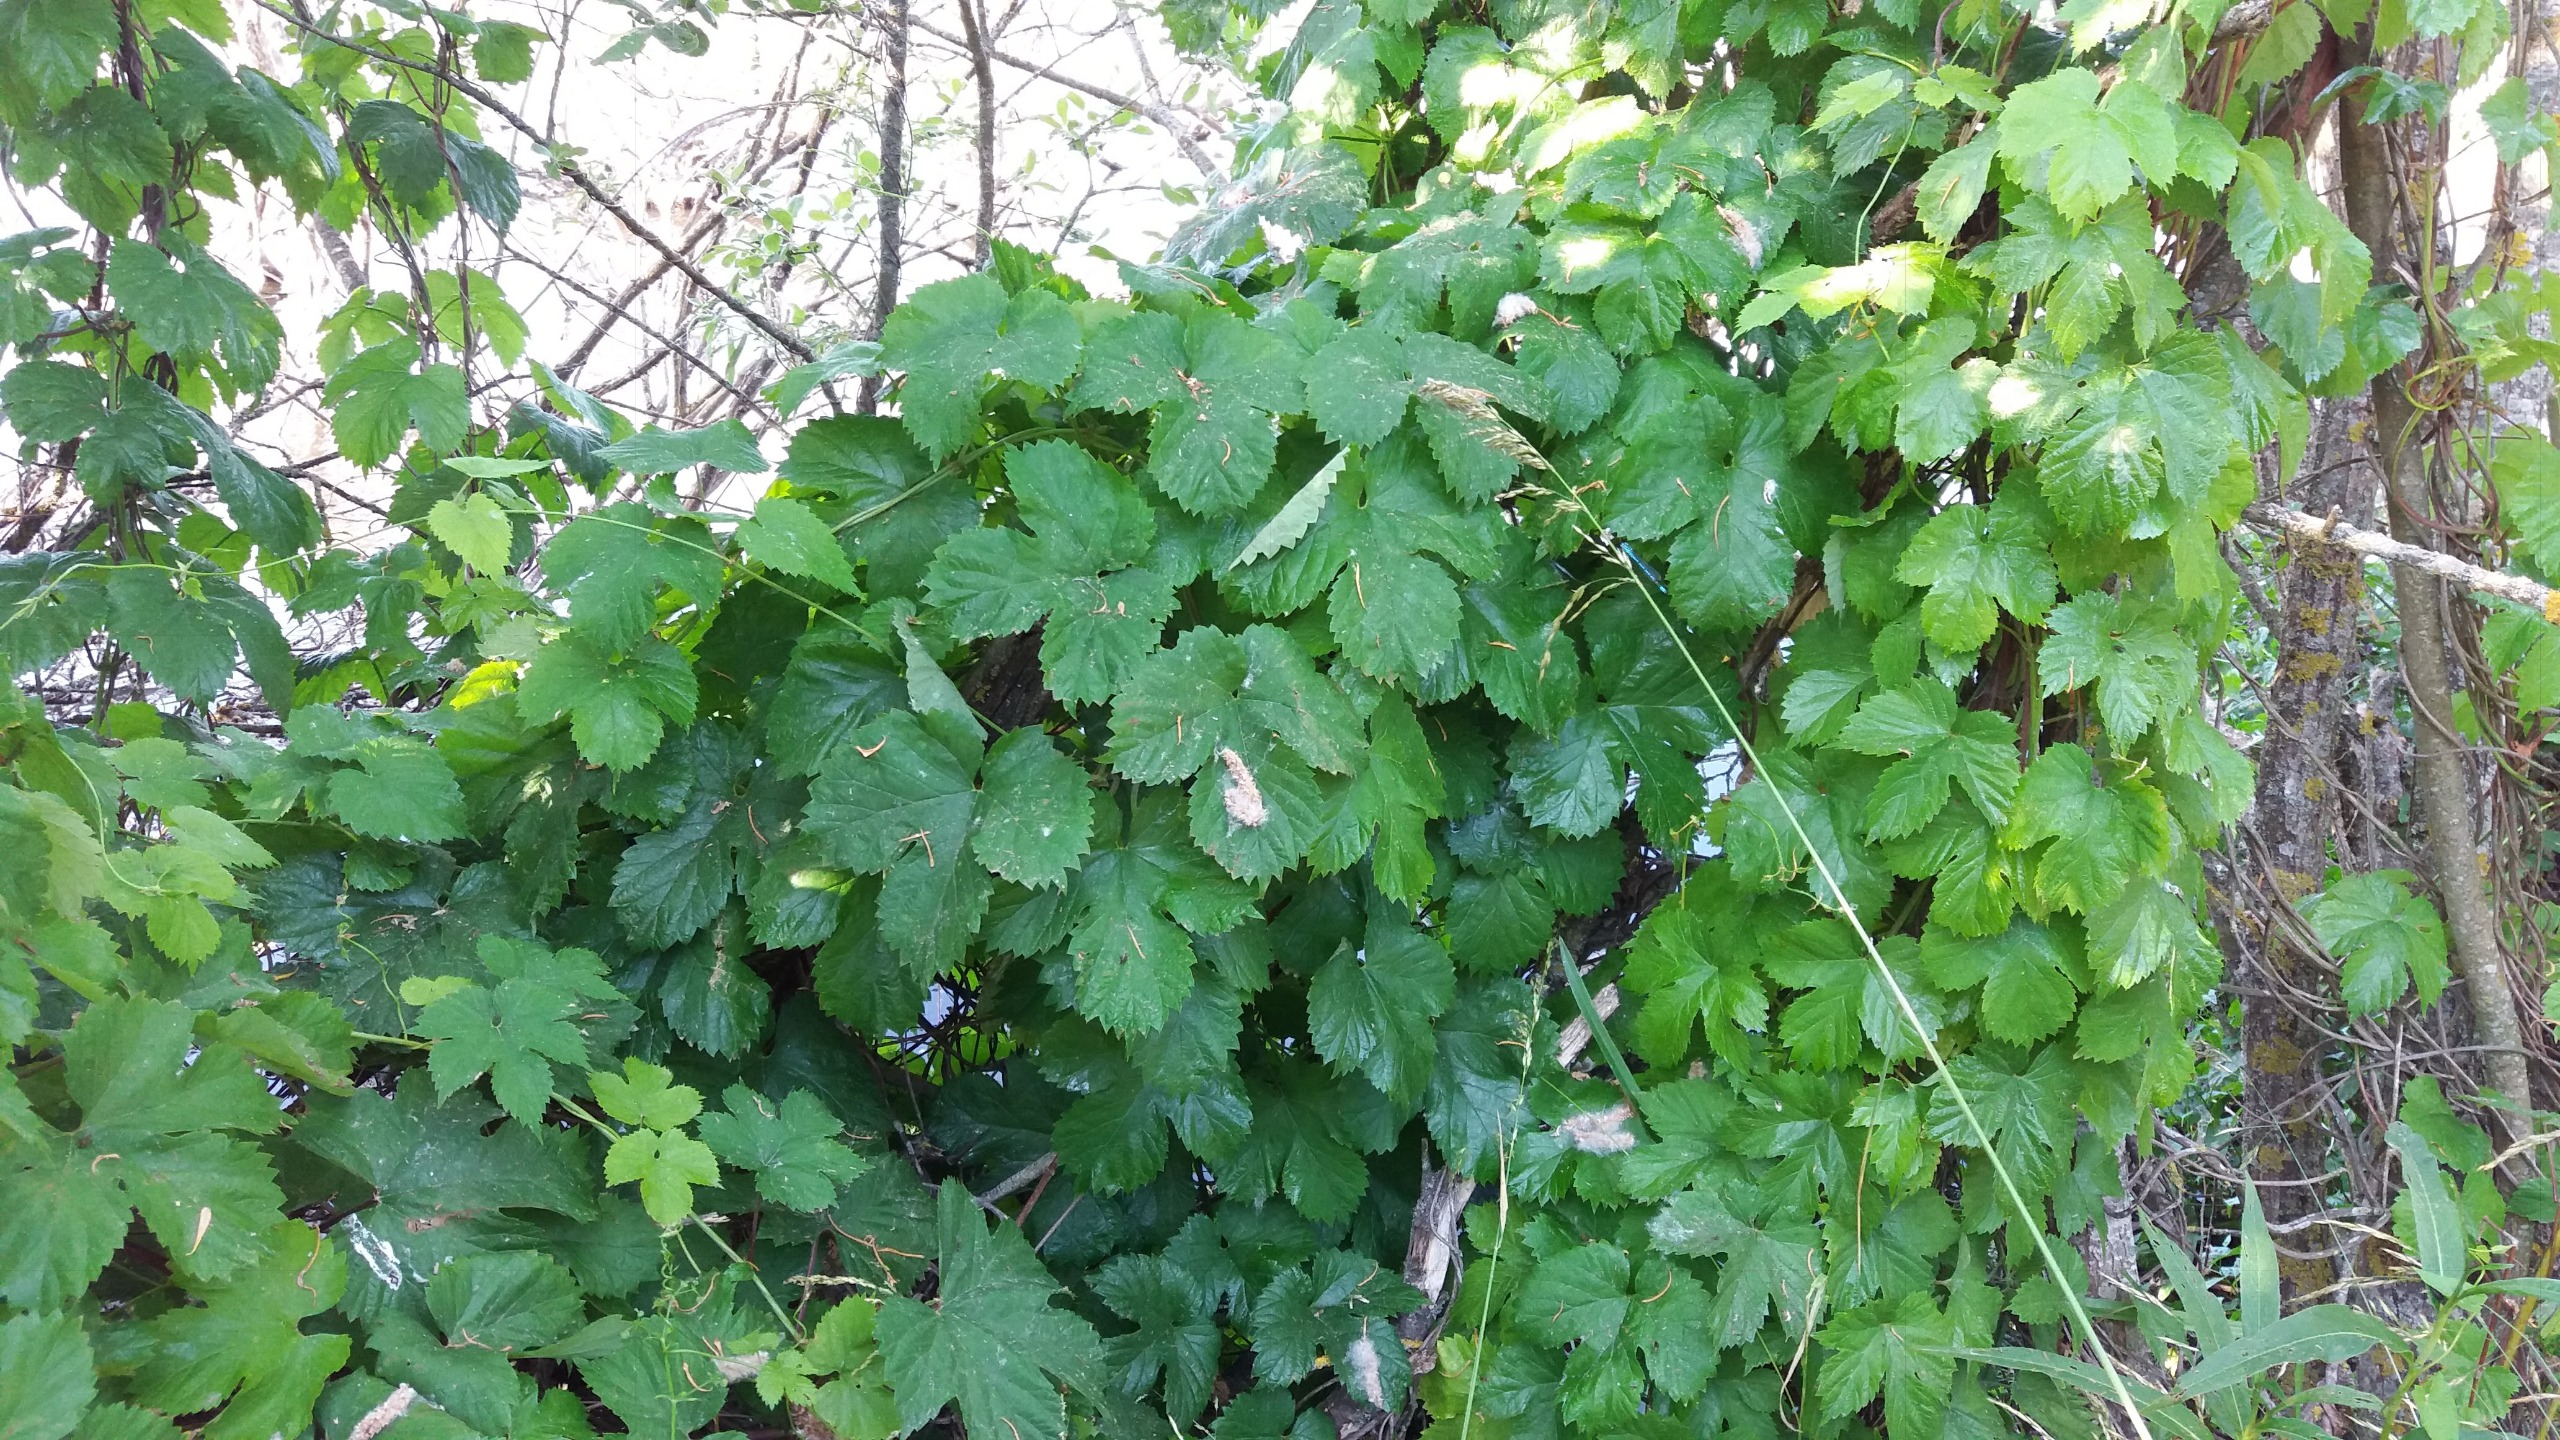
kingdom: Plantae
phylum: Tracheophyta
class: Magnoliopsida
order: Rosales
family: Cannabaceae
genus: Humulus
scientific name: Humulus lupulus
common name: Humle
